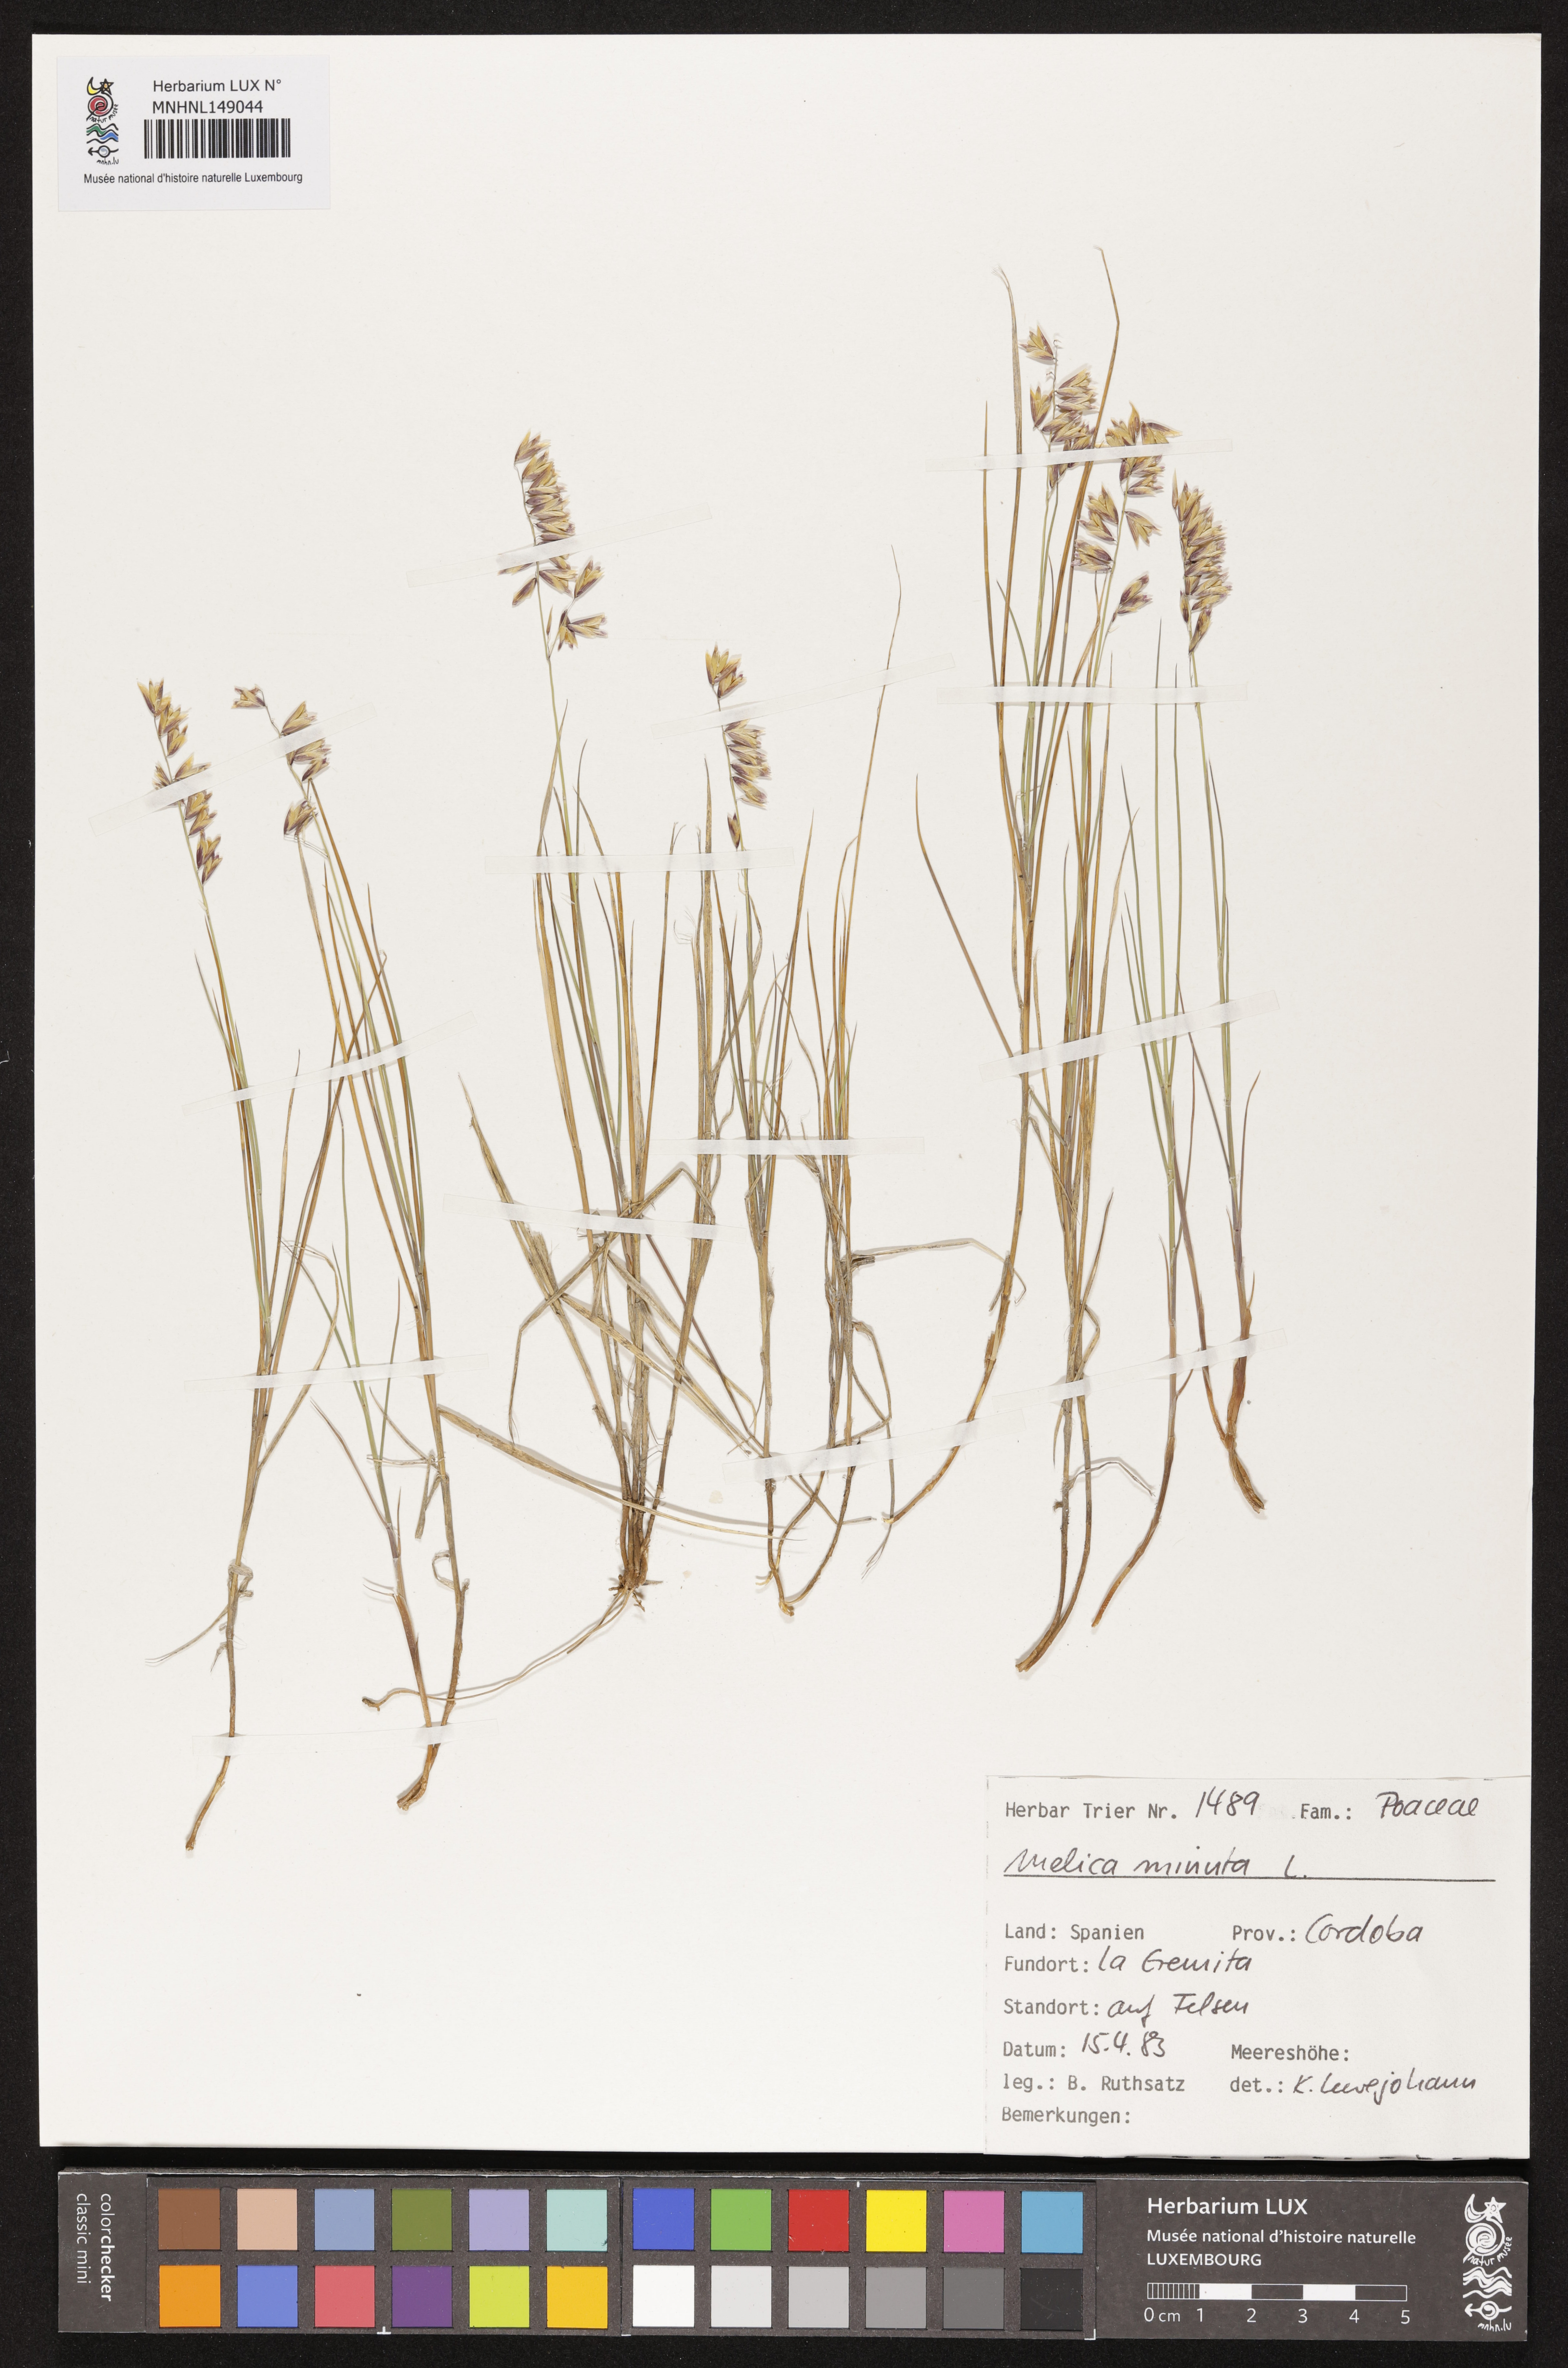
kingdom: Plantae
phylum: Tracheophyta
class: Liliopsida
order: Poales
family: Poaceae
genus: Melica
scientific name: Melica minuta
